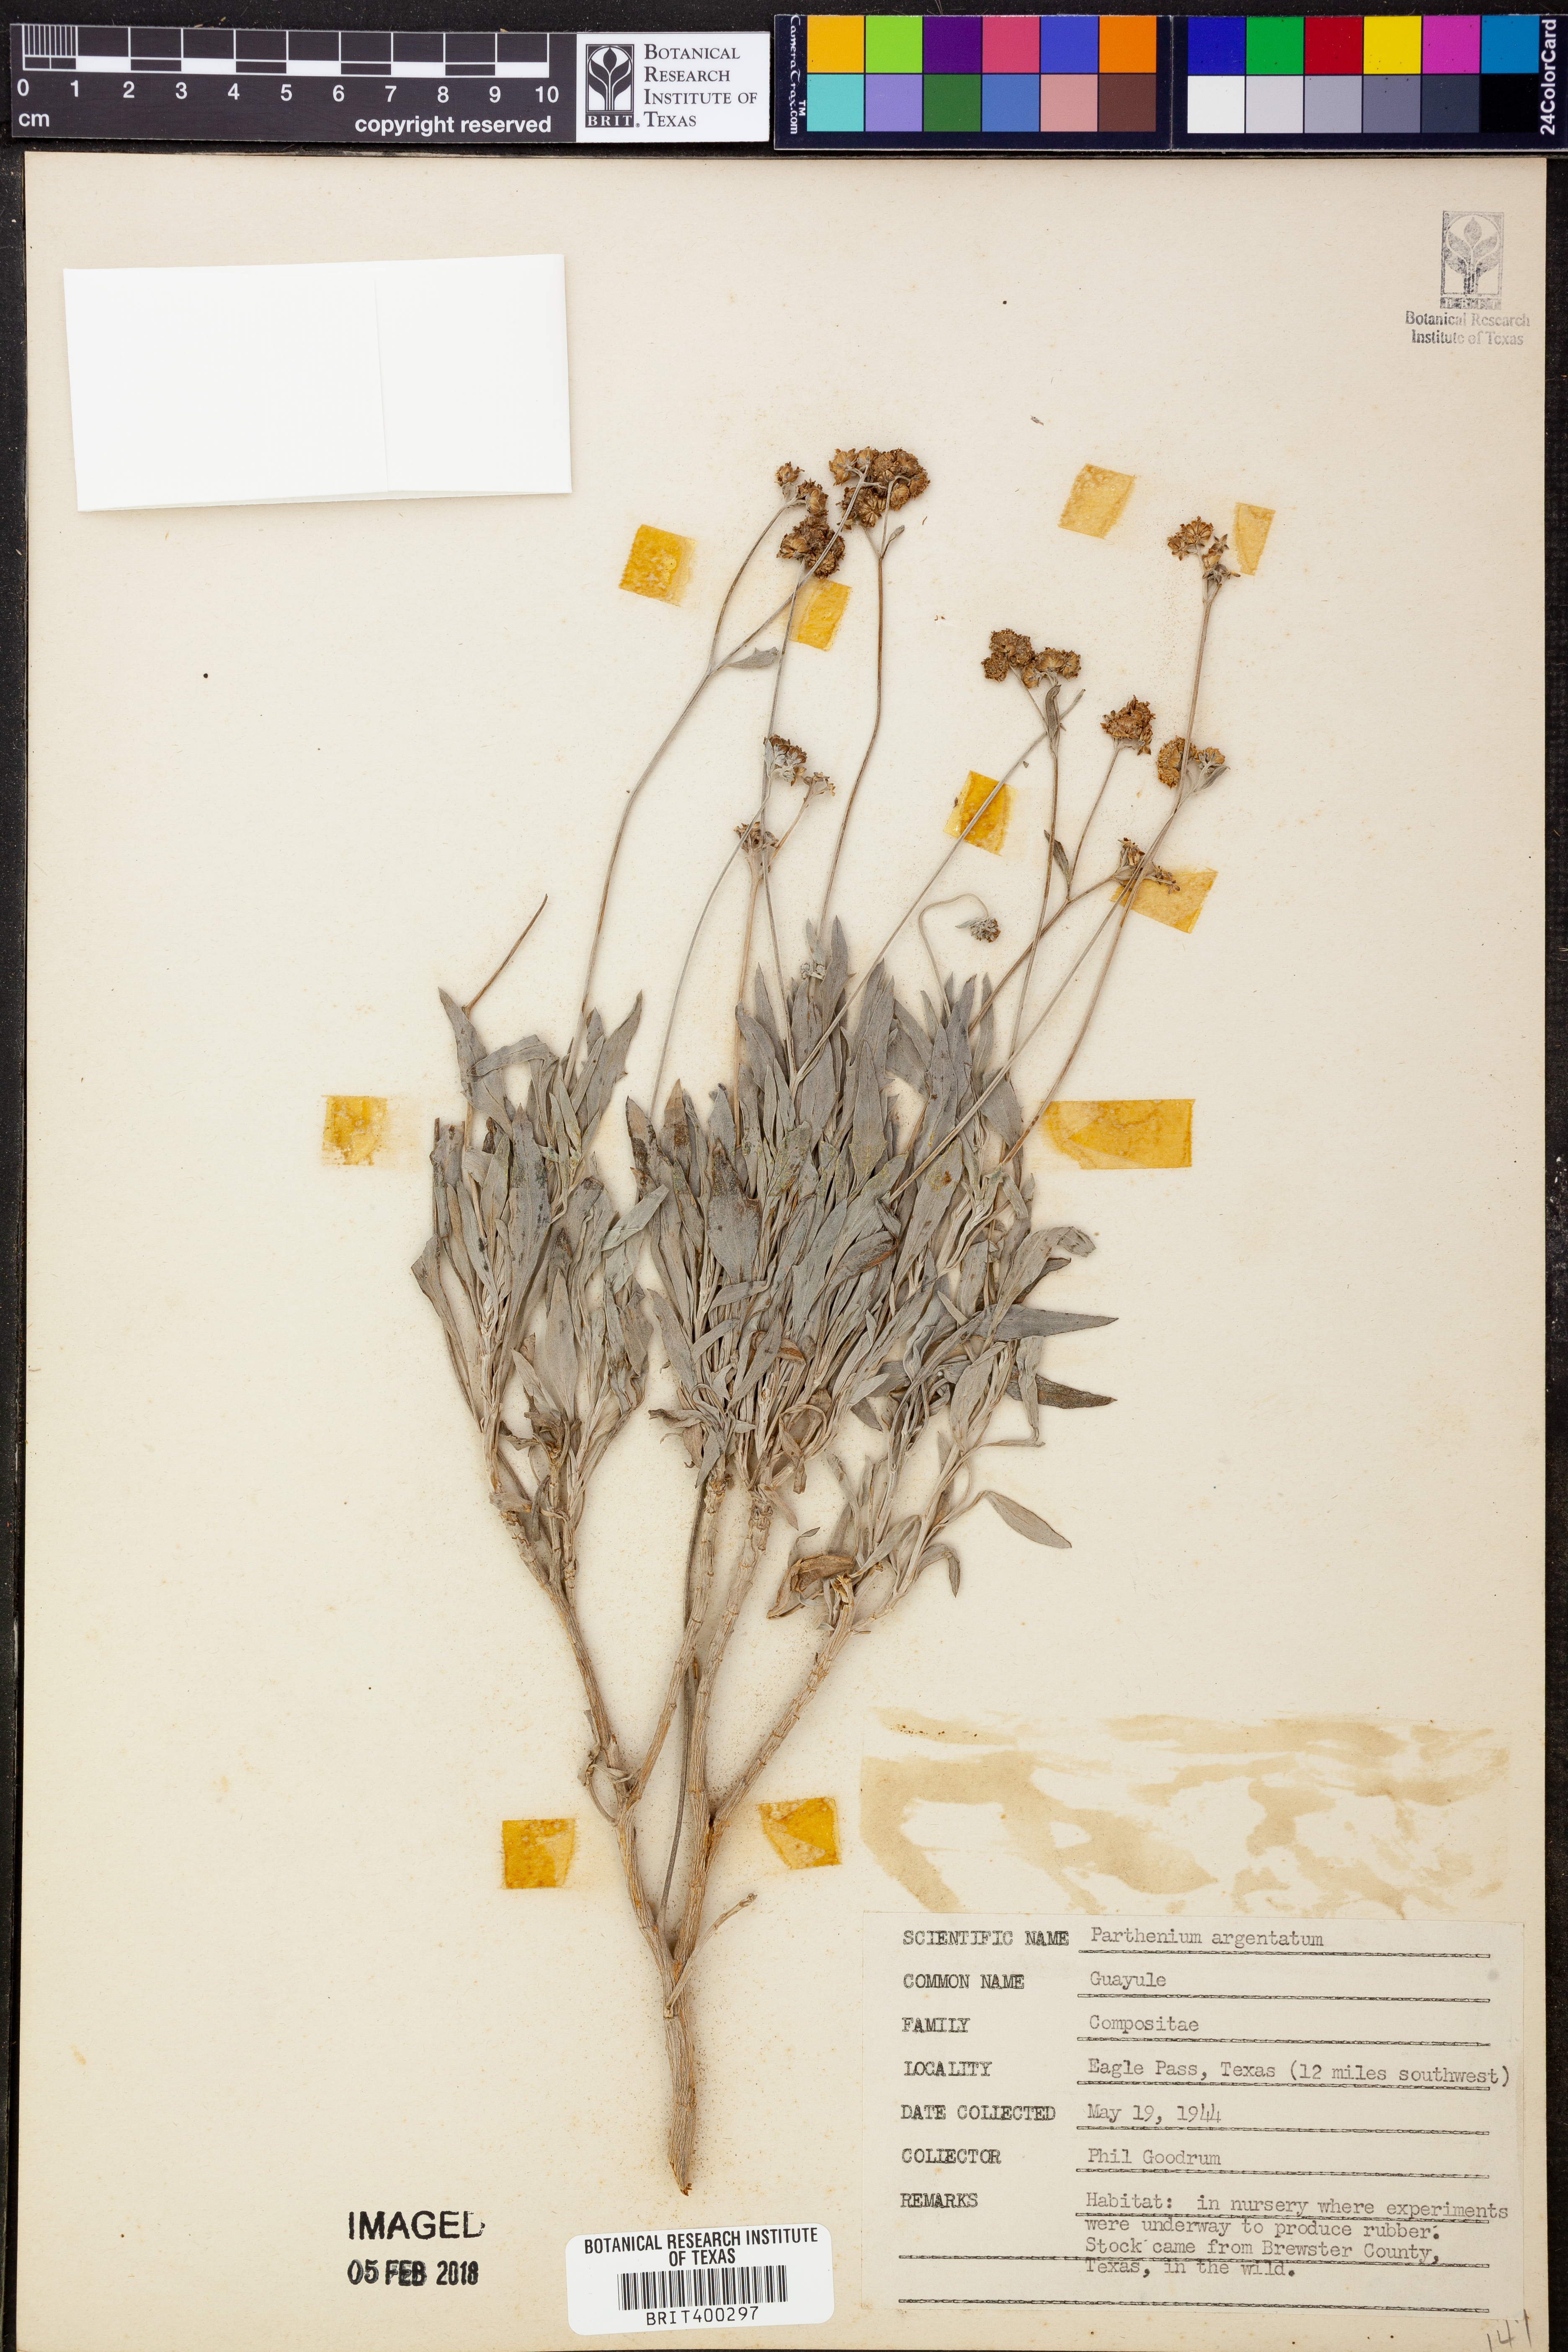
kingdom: Plantae
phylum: Tracheophyta
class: Magnoliopsida
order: Asterales
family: Asteraceae
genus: Parthenium
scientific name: Parthenium argentatum
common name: Guayule
